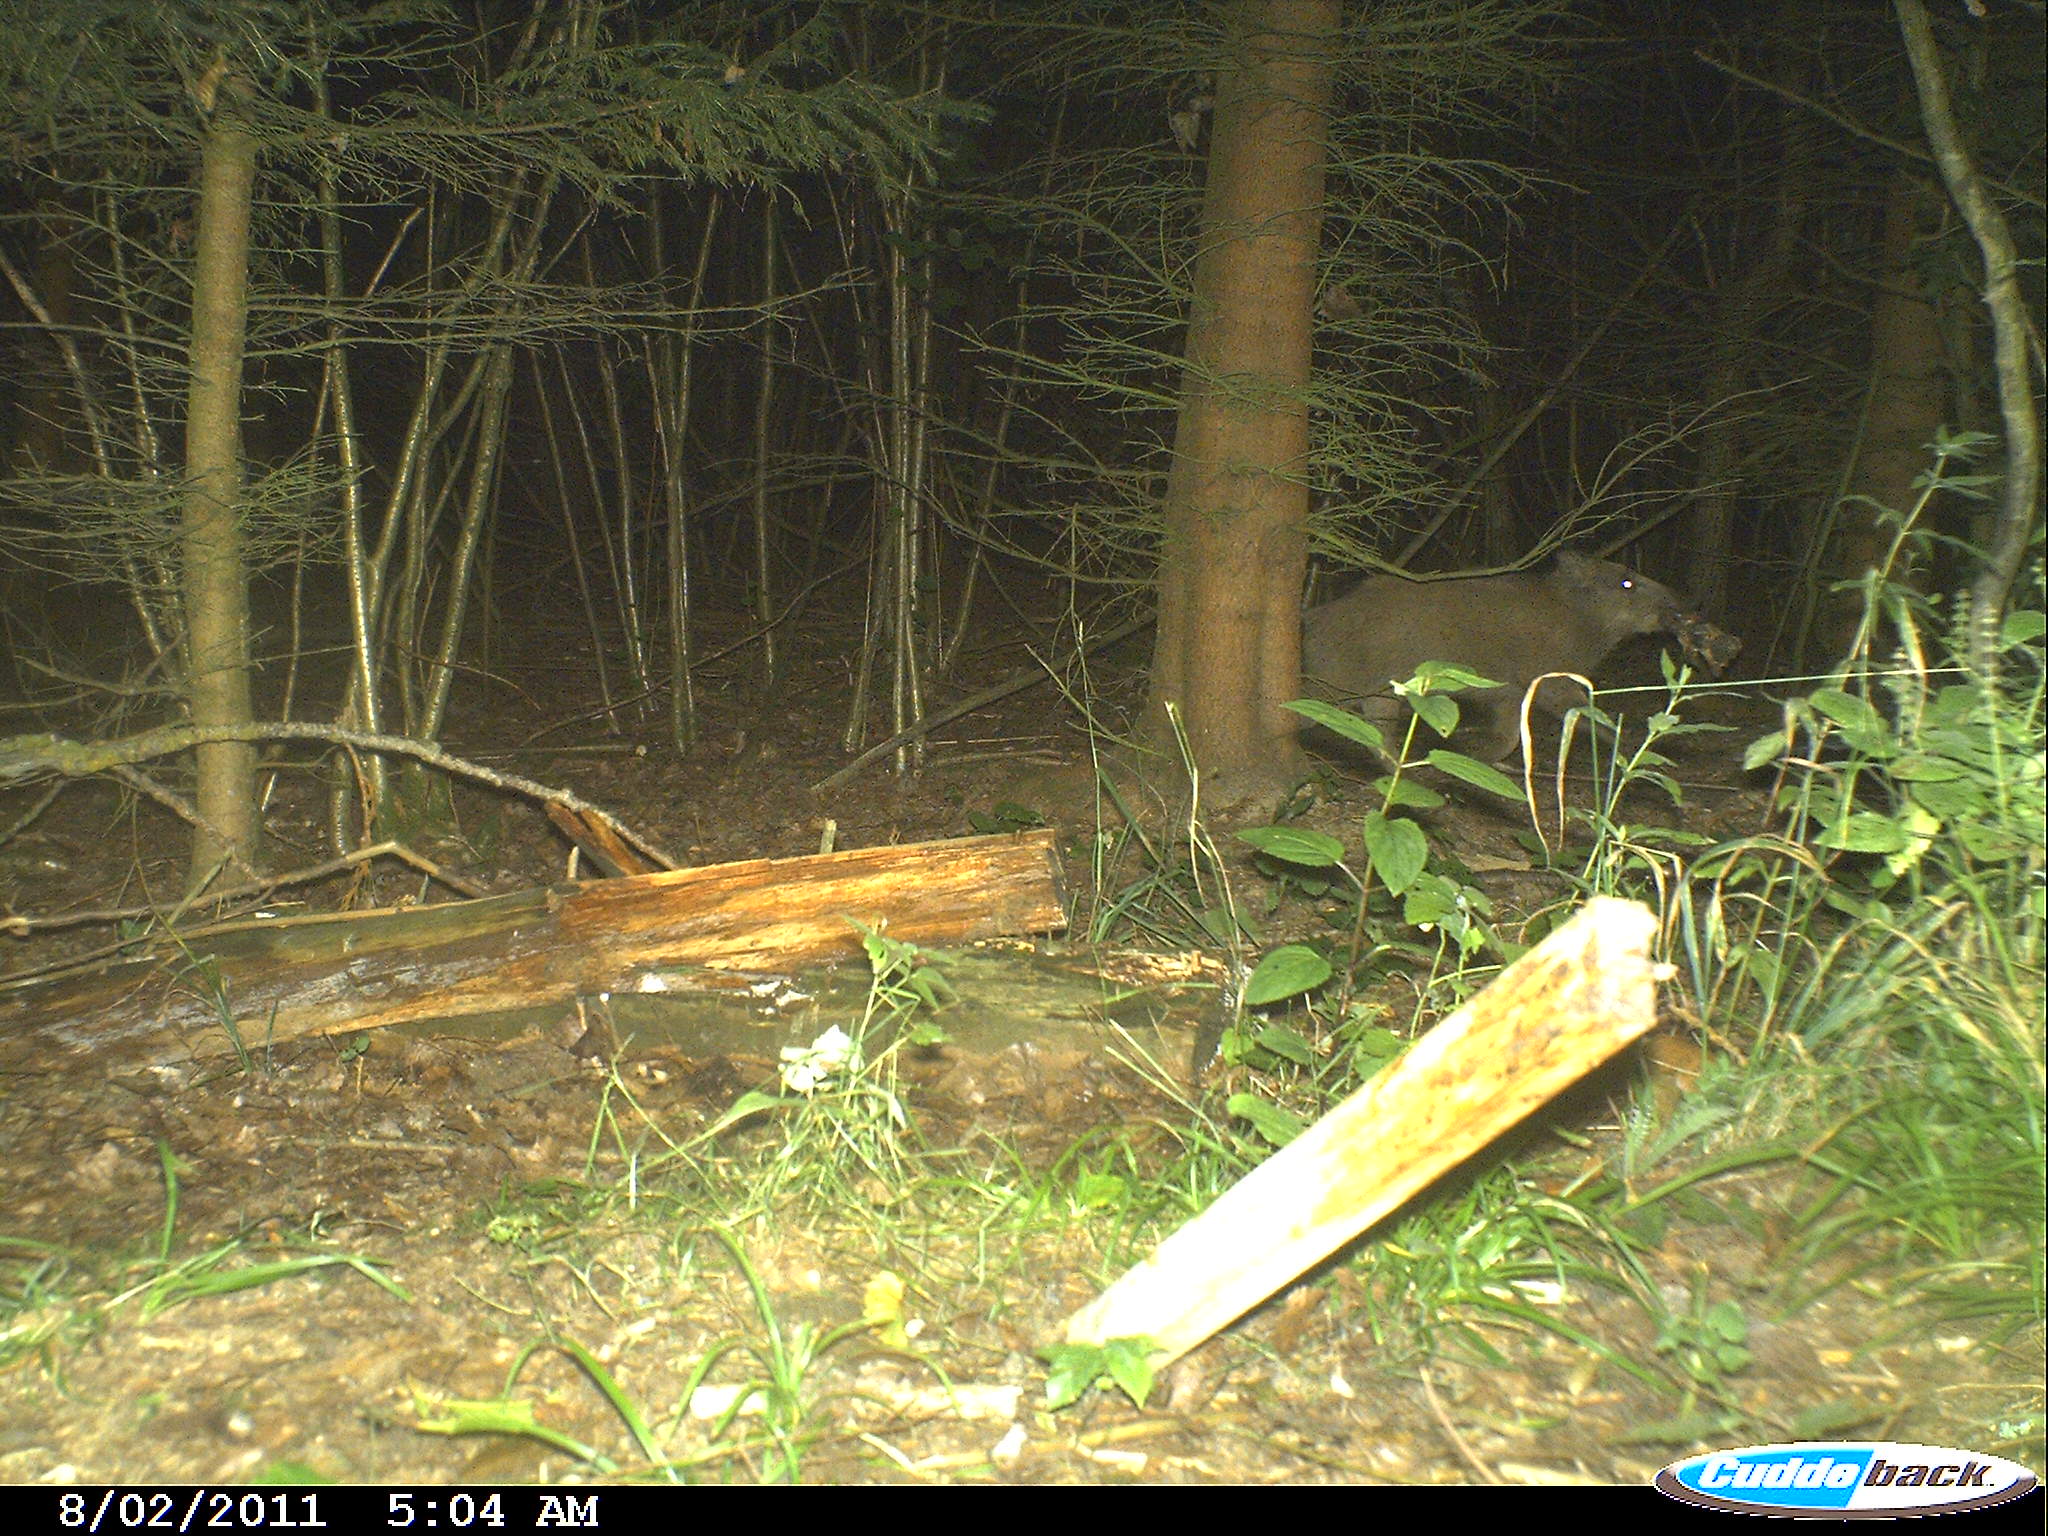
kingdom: Animalia
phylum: Chordata
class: Mammalia
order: Artiodactyla
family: Suidae
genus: Sus
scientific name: Sus scrofa
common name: Wild boar
